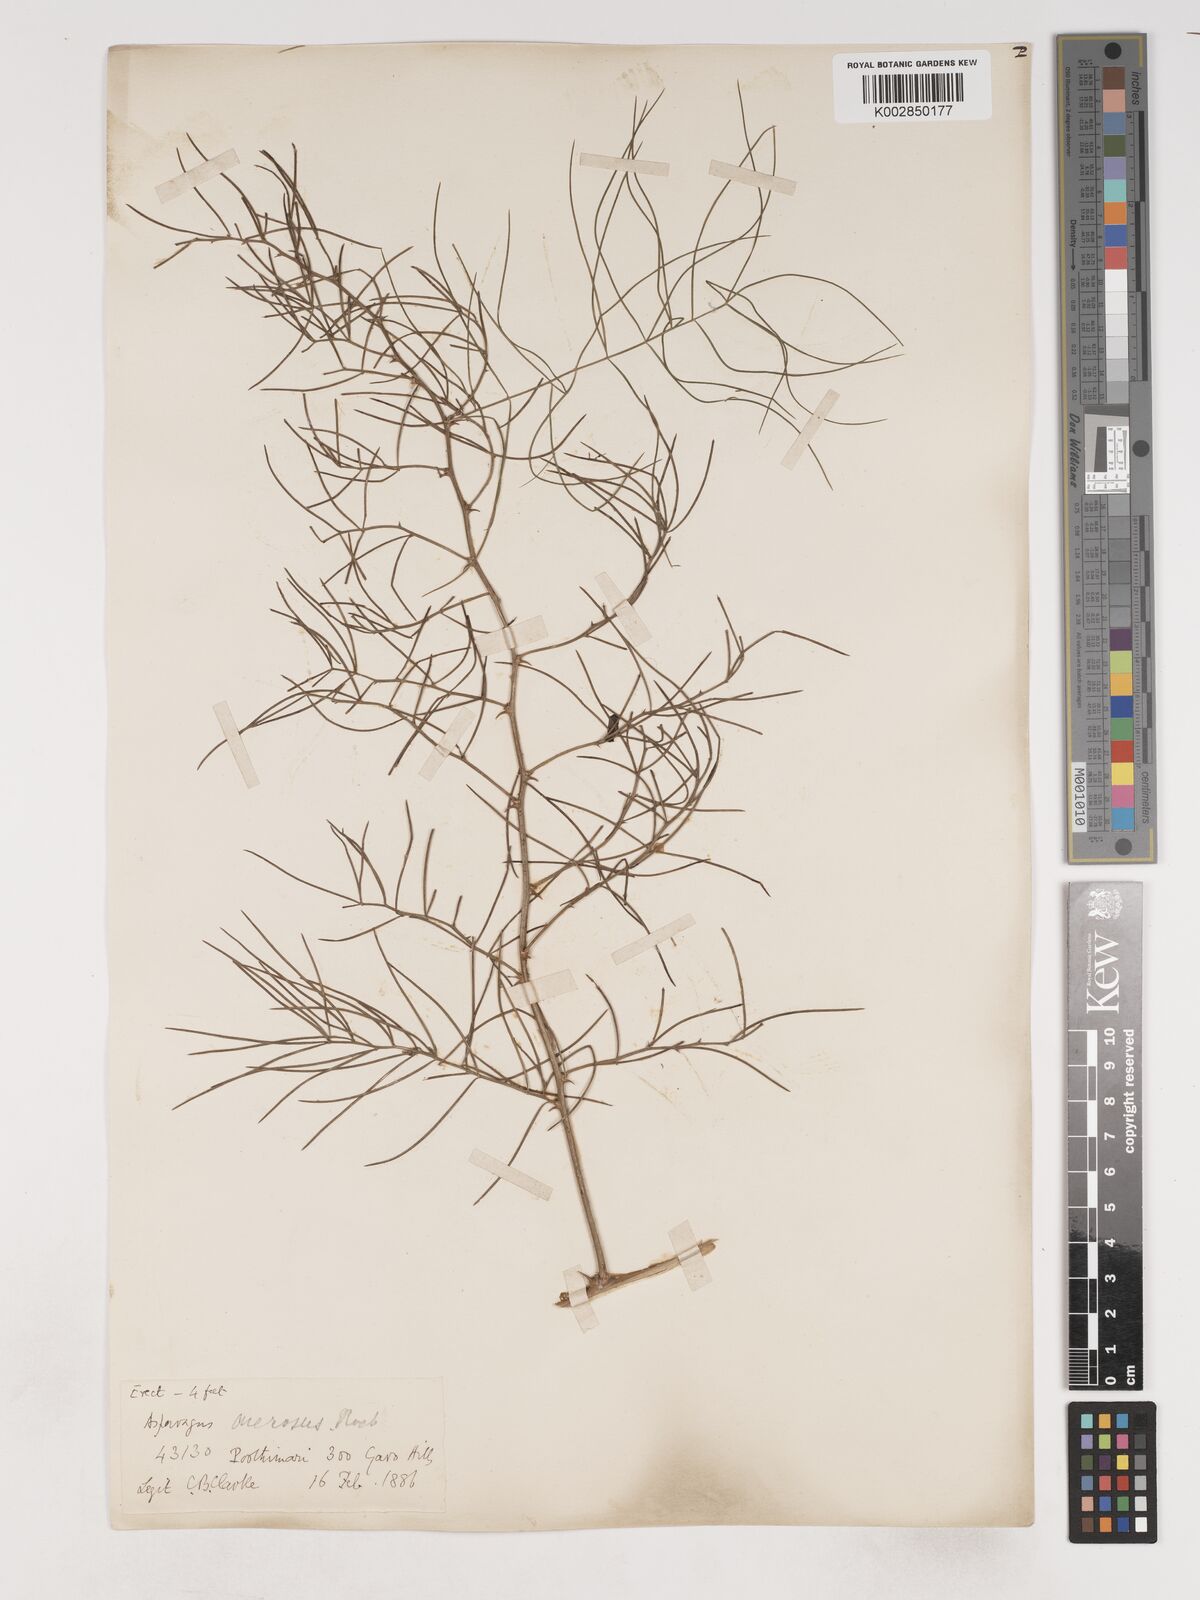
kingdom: Plantae
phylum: Tracheophyta
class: Liliopsida
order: Asparagales
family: Asparagaceae
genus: Asparagus
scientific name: Asparagus racemosus
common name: Asparagus-fern
